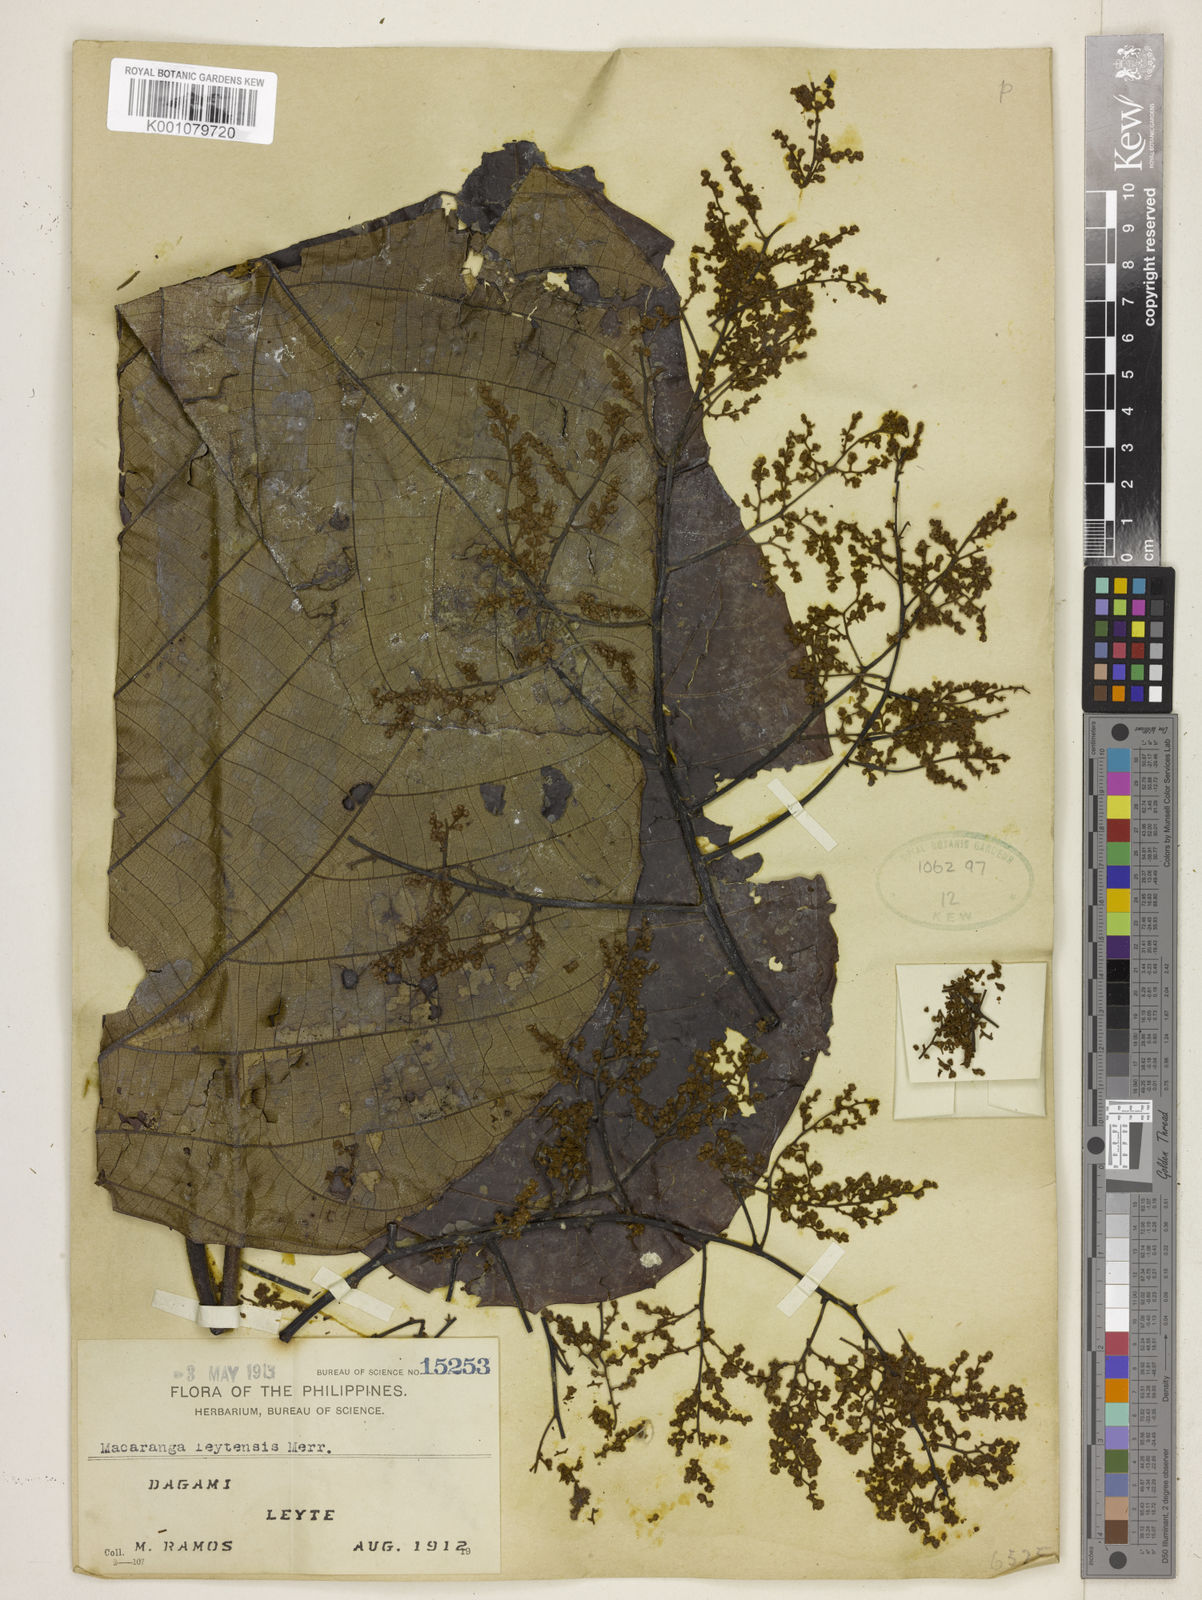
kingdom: Plantae
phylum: Tracheophyta
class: Magnoliopsida
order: Malpighiales
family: Euphorbiaceae
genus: Macaranga
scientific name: Macaranga leytensis
